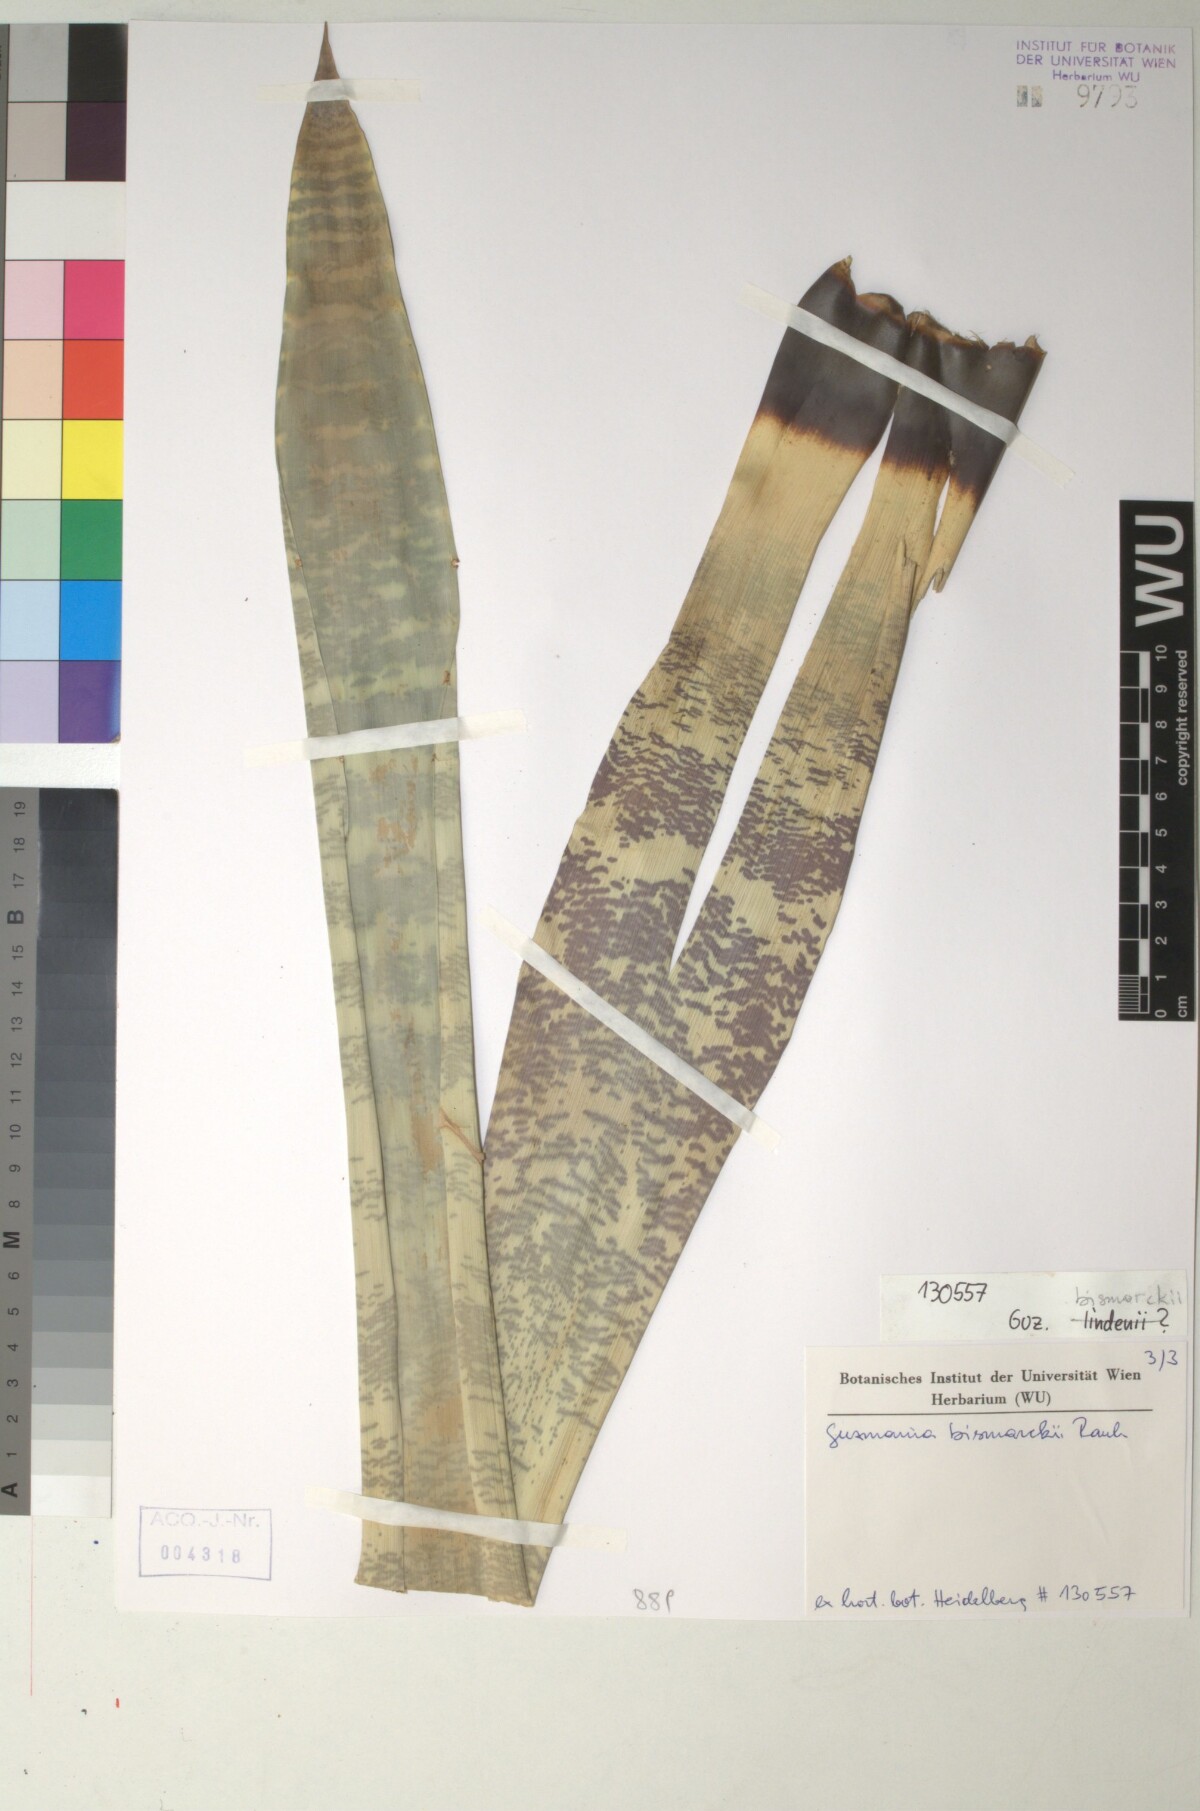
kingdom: Plantae
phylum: Tracheophyta
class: Liliopsida
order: Poales
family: Bromeliaceae
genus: Guzmania
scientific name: Guzmania lindenii
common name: Guzmania
